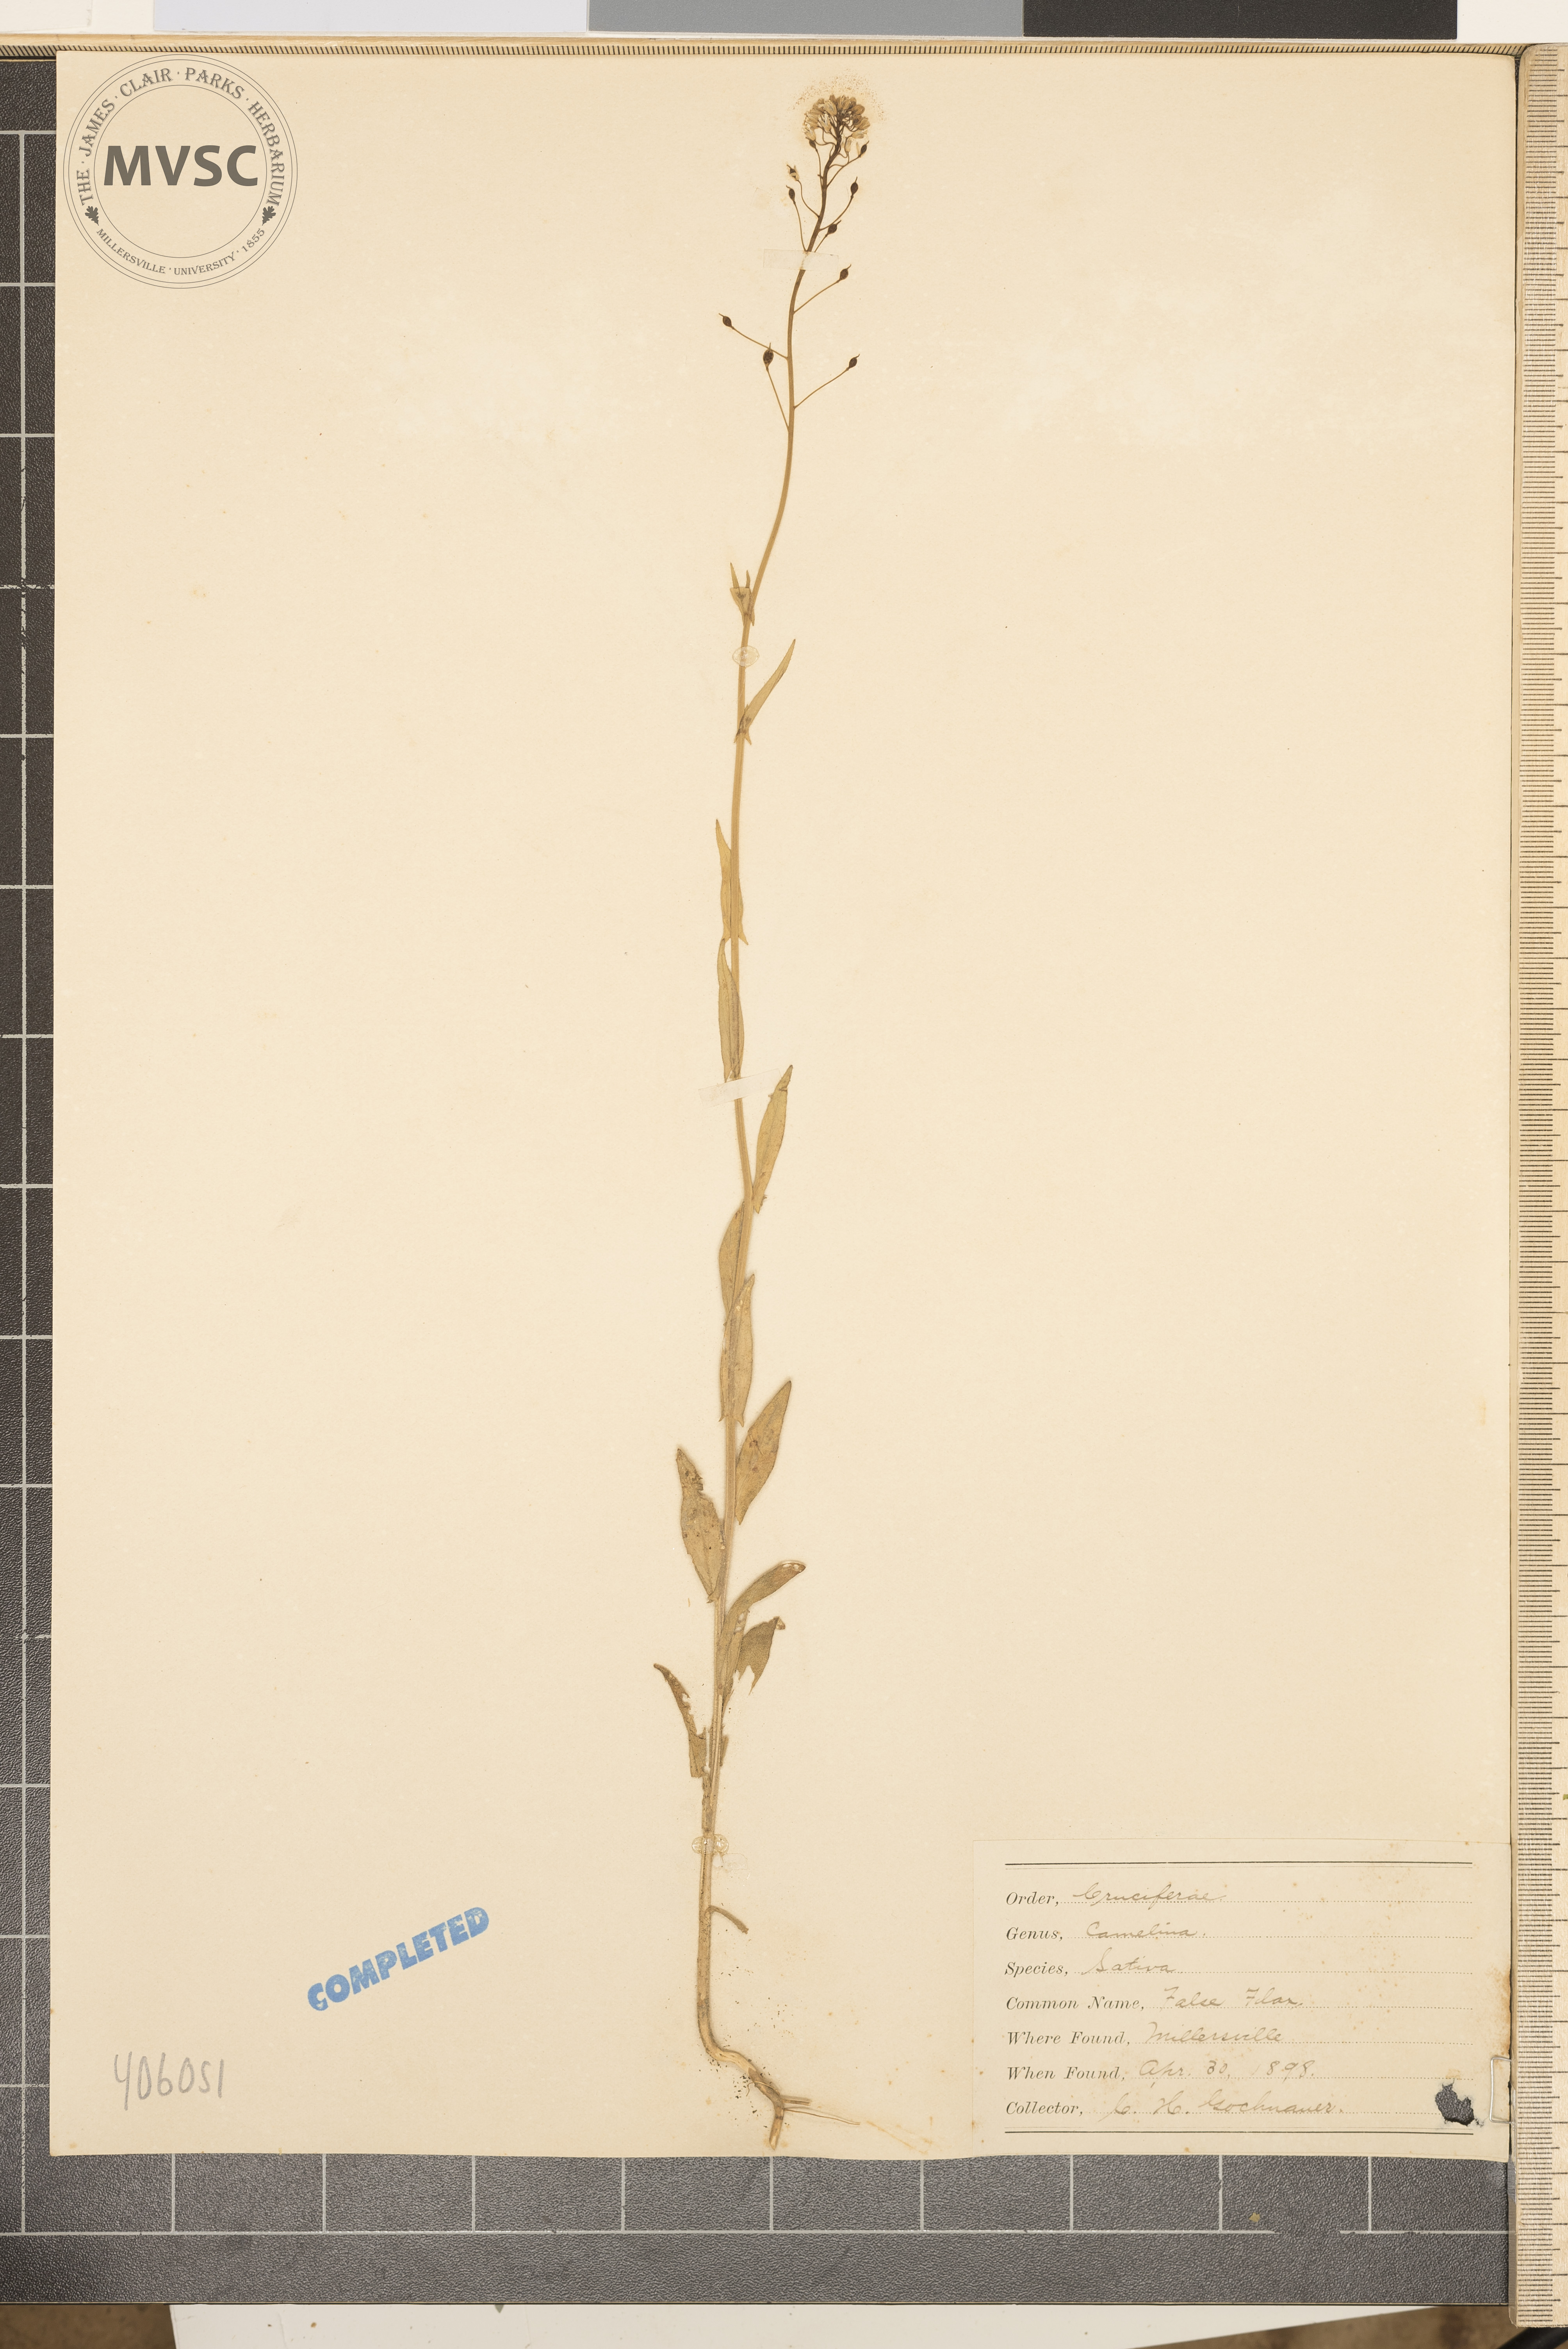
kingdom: Plantae
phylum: Tracheophyta
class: Magnoliopsida
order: Brassicales
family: Brassicaceae
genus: Camelina
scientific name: Camelina sativa
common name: Gold-of-pleasure
